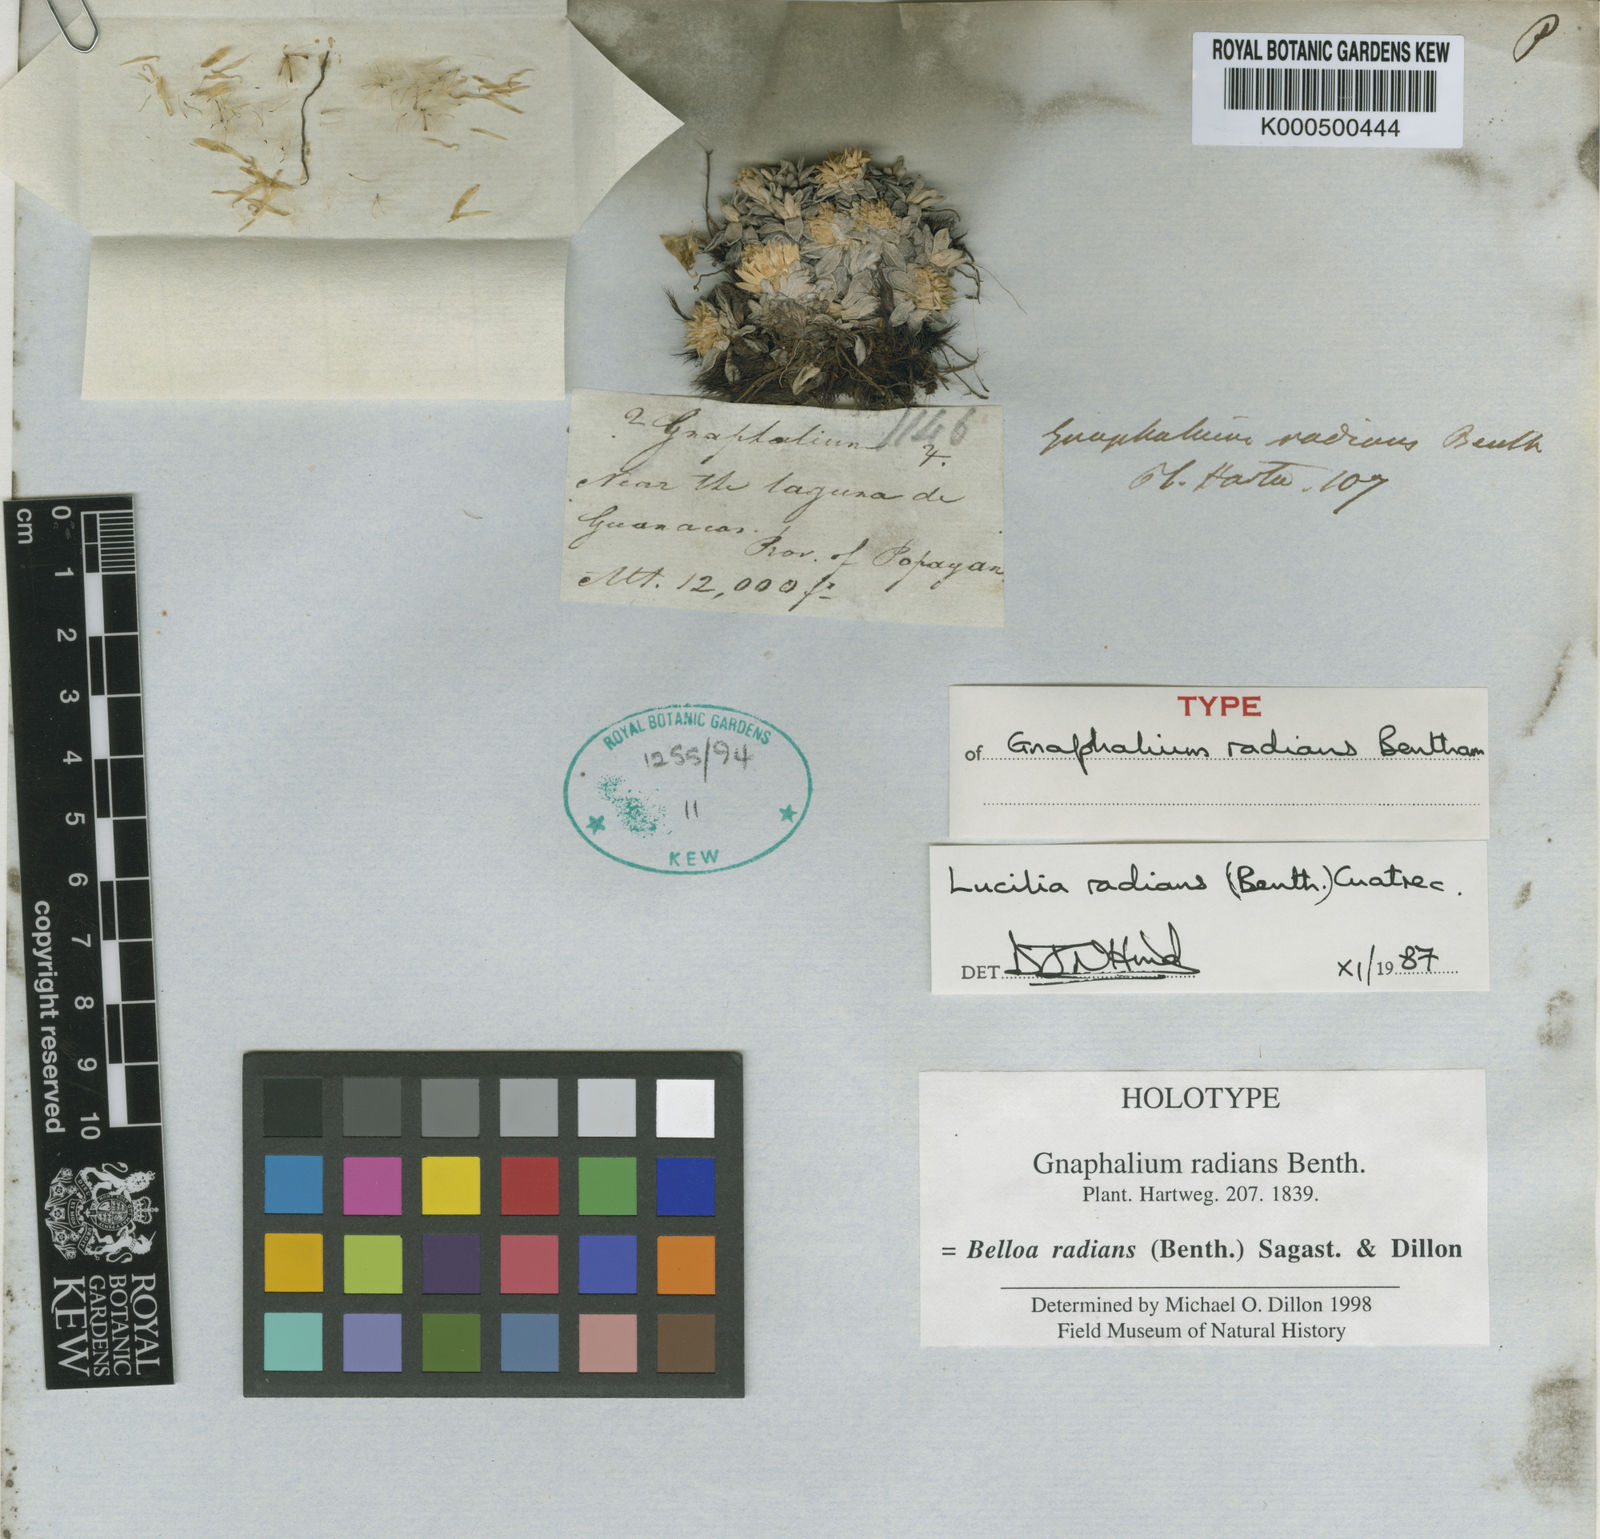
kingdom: Plantae
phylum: Tracheophyta
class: Magnoliopsida
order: Asterales
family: Asteraceae
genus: Belloa
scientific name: Belloa
